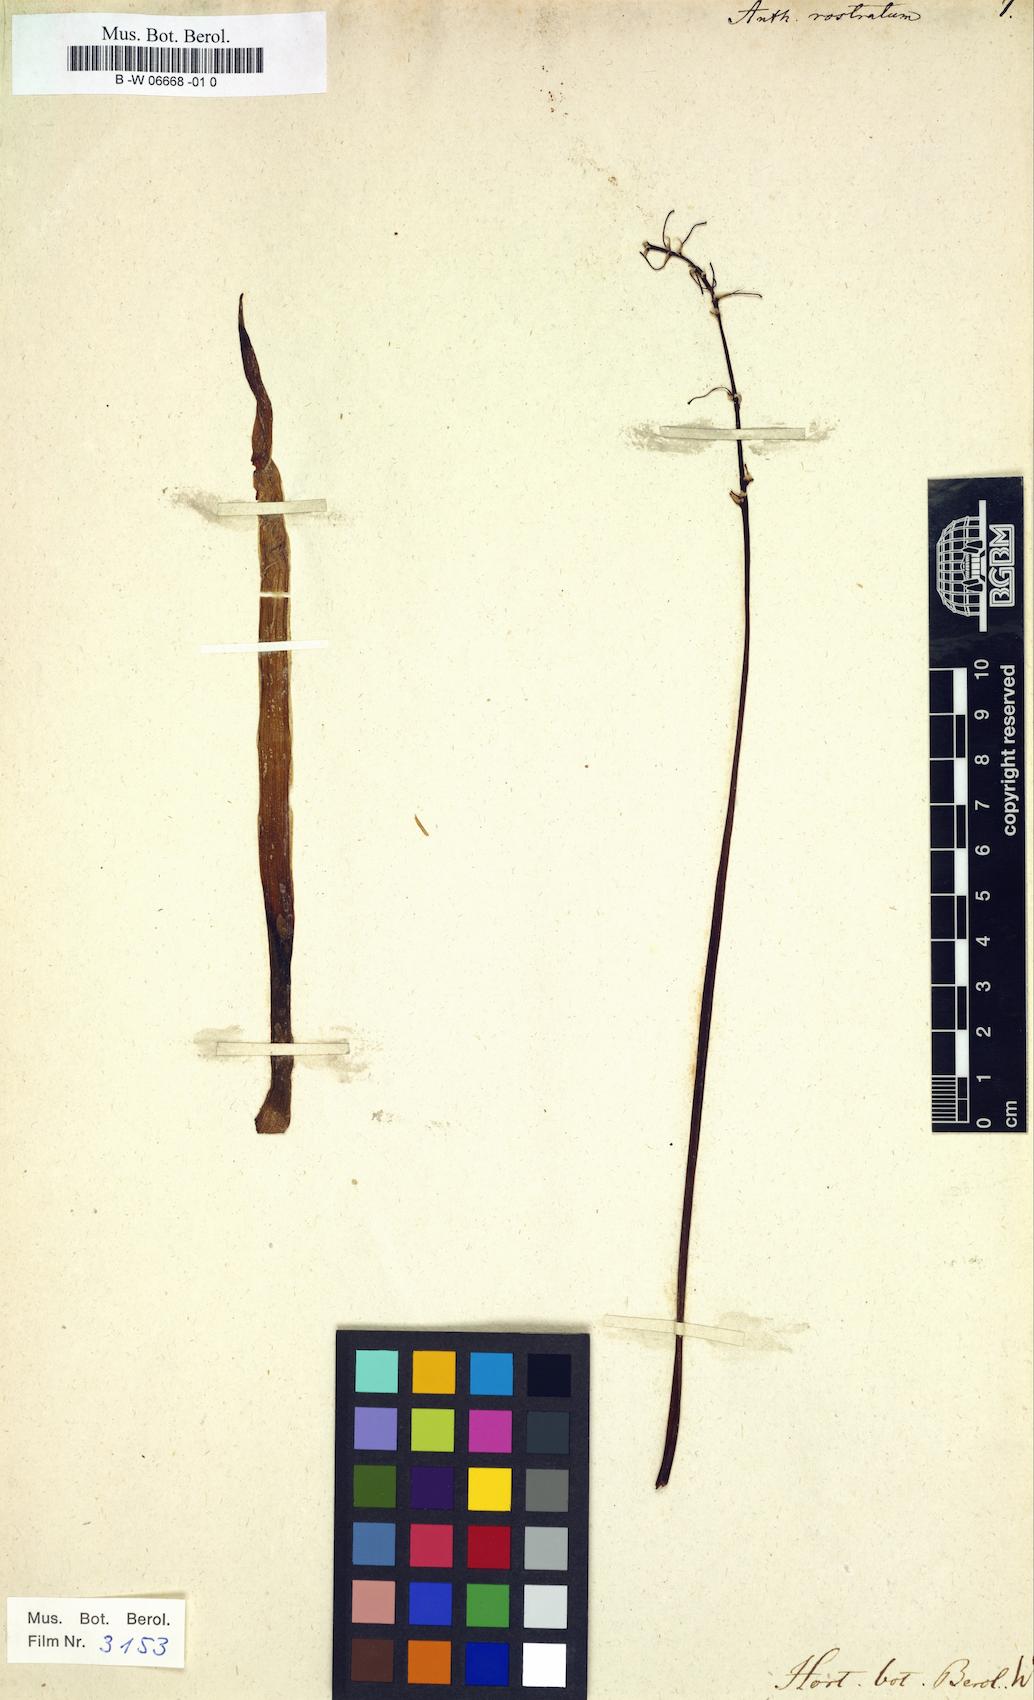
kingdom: Plantae
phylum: Tracheophyta
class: Liliopsida
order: Asparagales
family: Asphodelaceae
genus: Bulbine
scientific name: Bulbine frutescens
